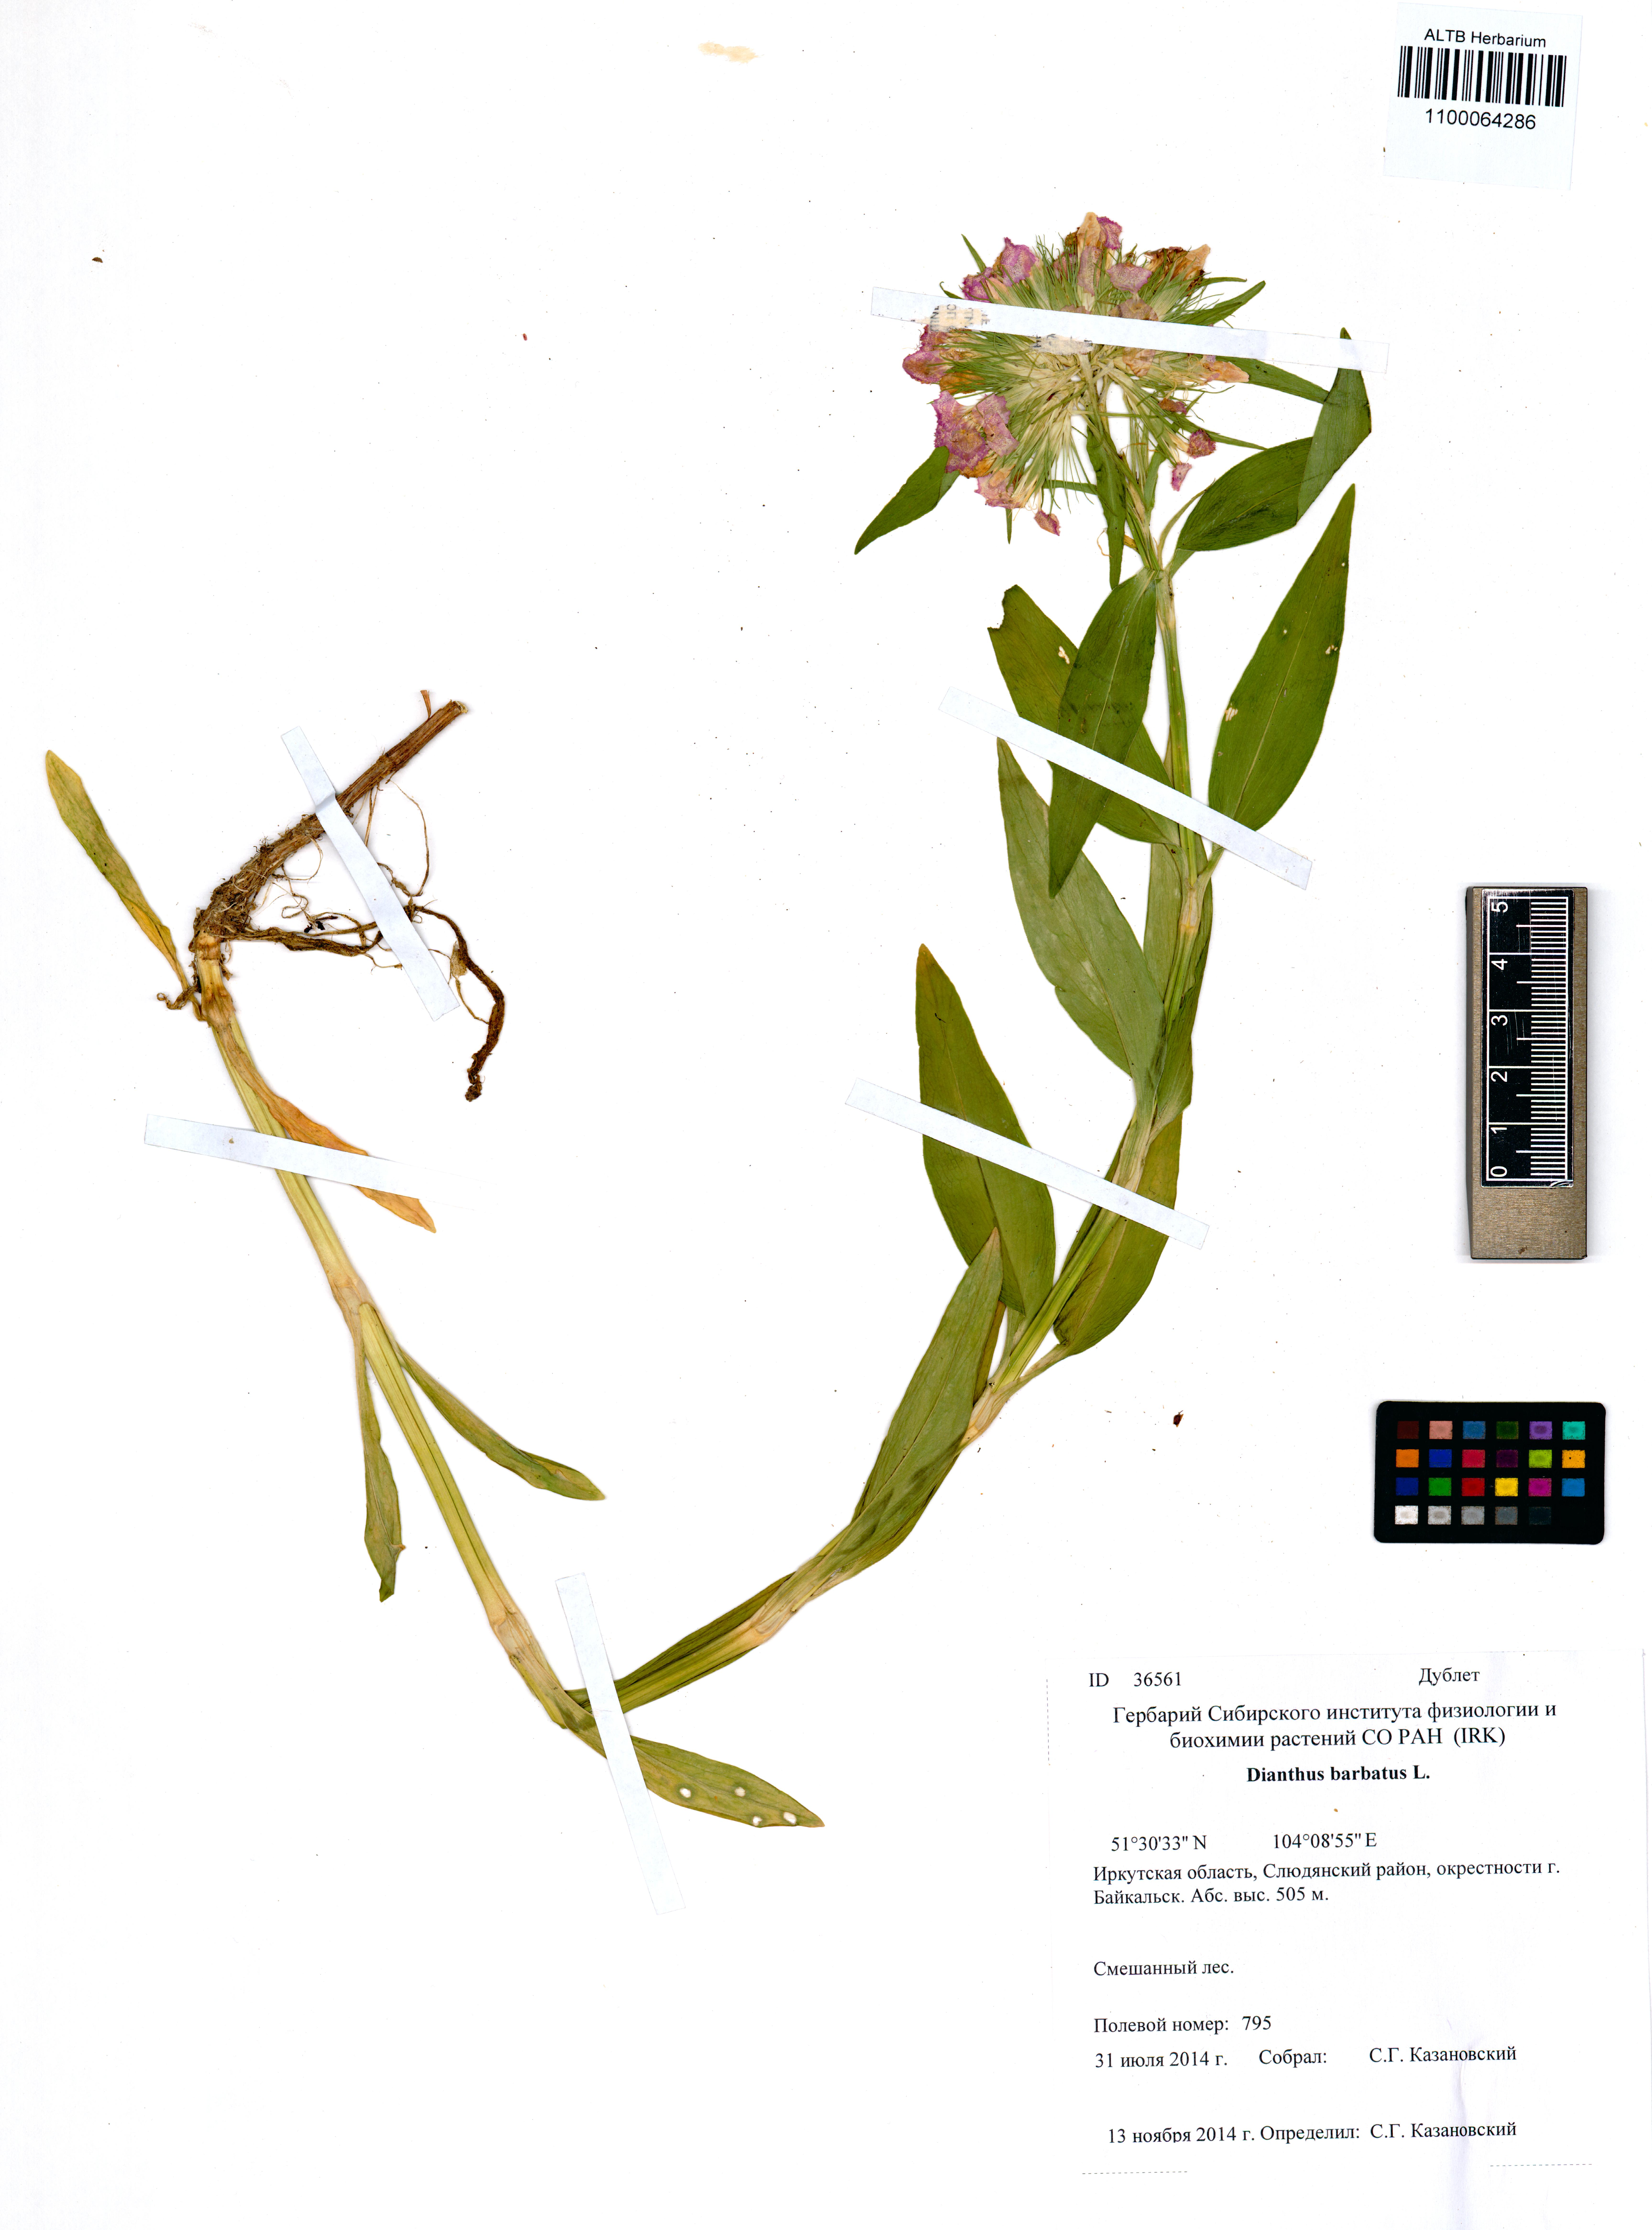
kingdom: Plantae
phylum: Tracheophyta
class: Magnoliopsida
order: Caryophyllales
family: Caryophyllaceae
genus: Dianthus
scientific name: Dianthus barbatus
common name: Sweet-william
